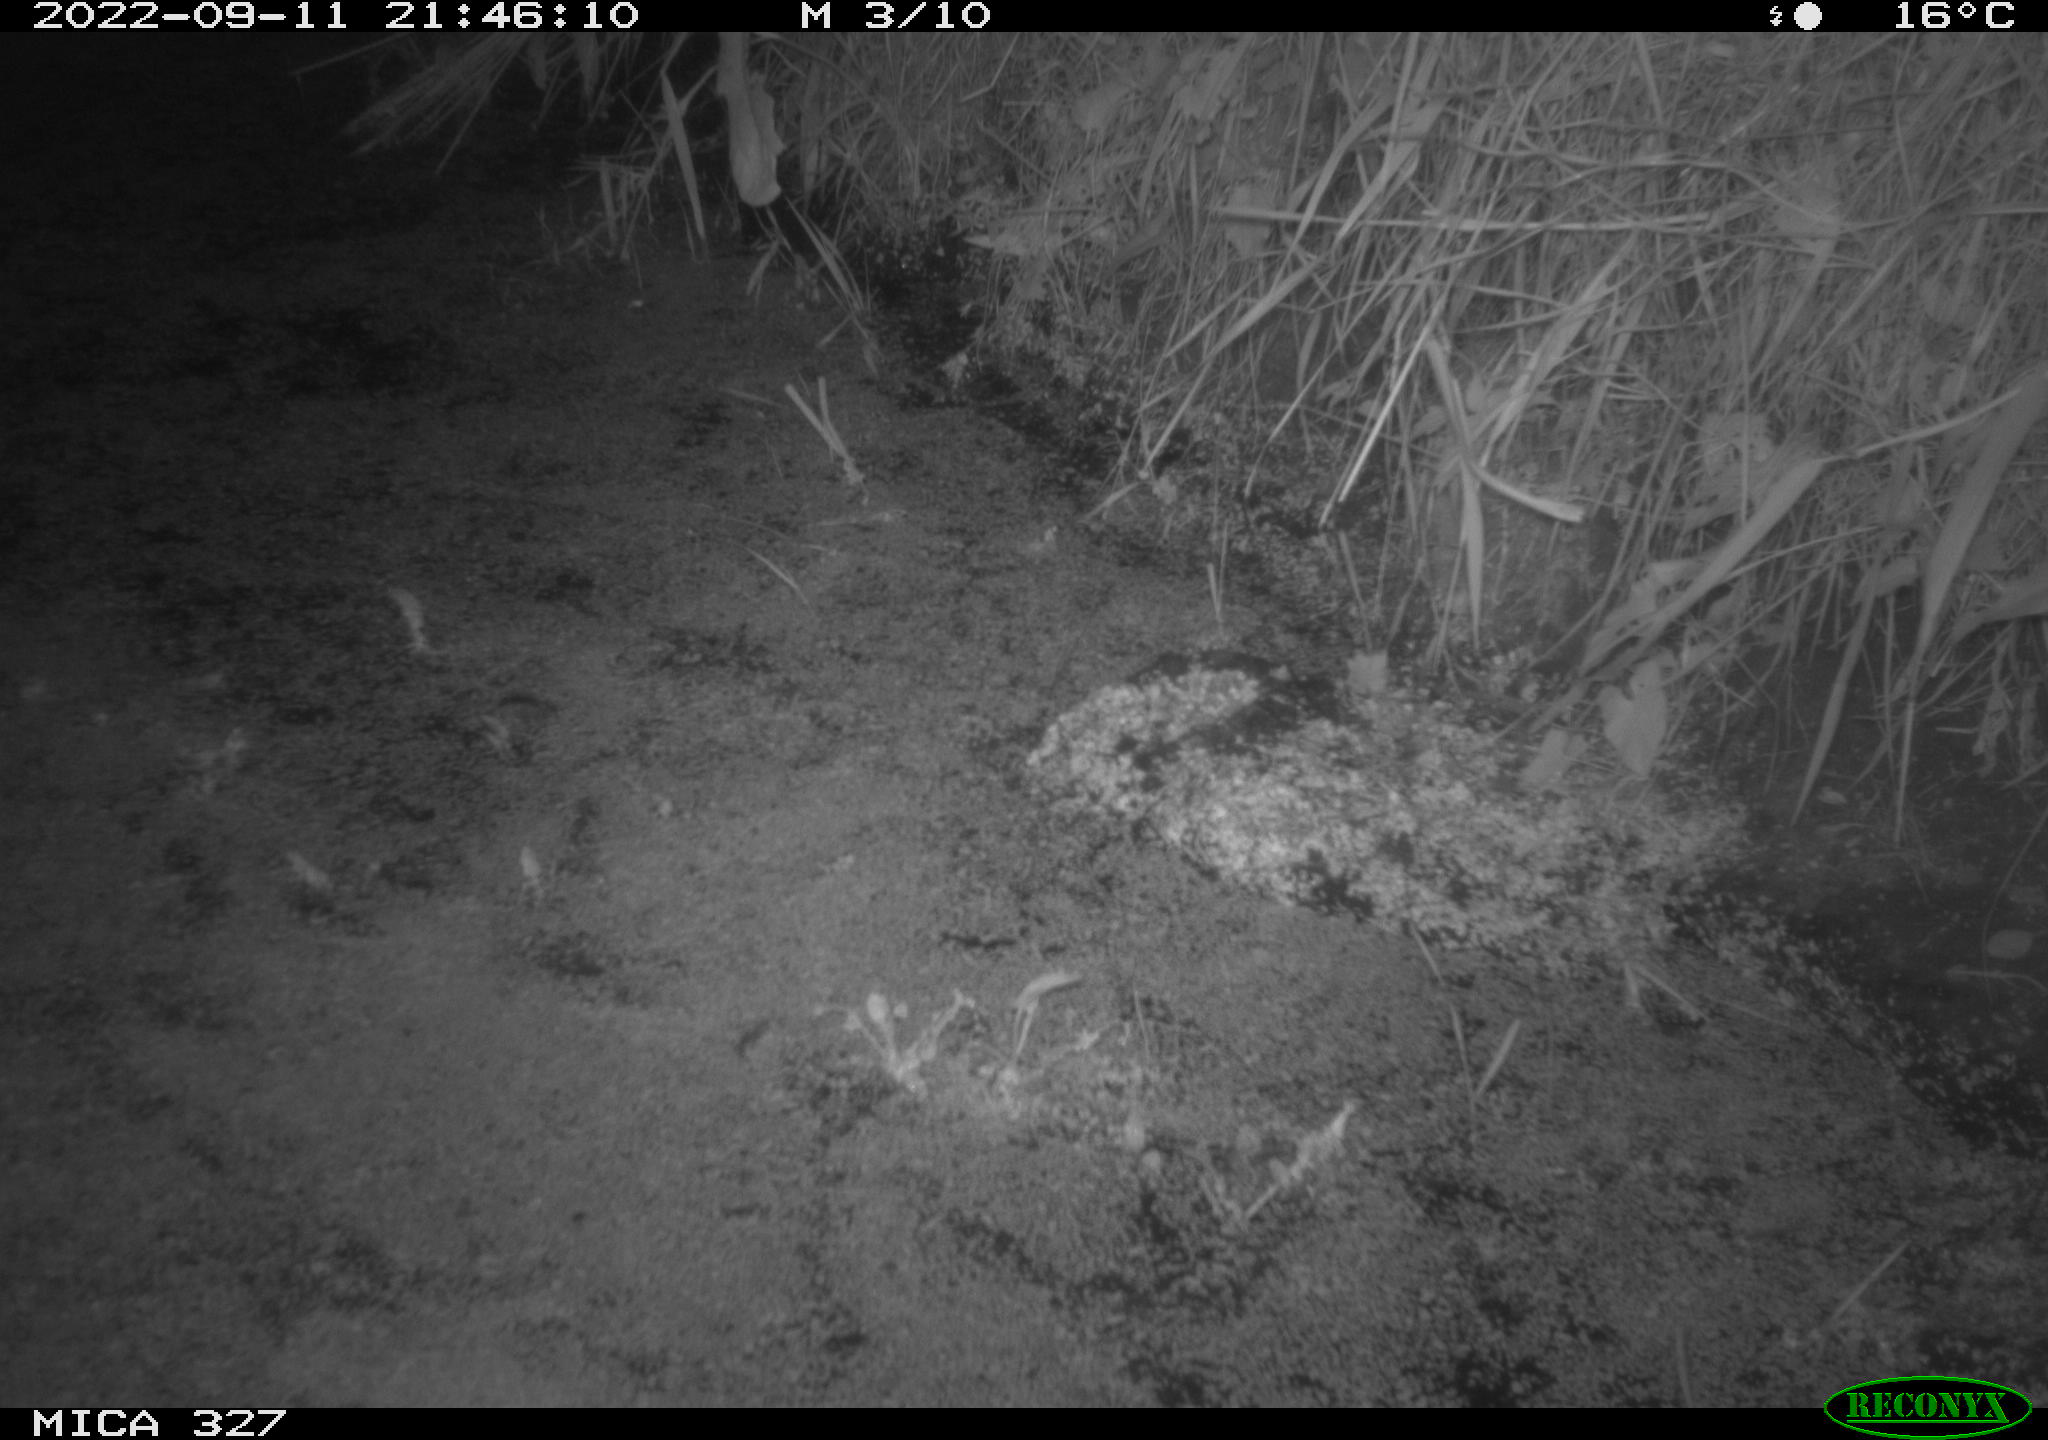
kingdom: Animalia
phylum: Chordata
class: Mammalia
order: Rodentia
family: Muridae
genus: Rattus
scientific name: Rattus norvegicus
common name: Brown rat
